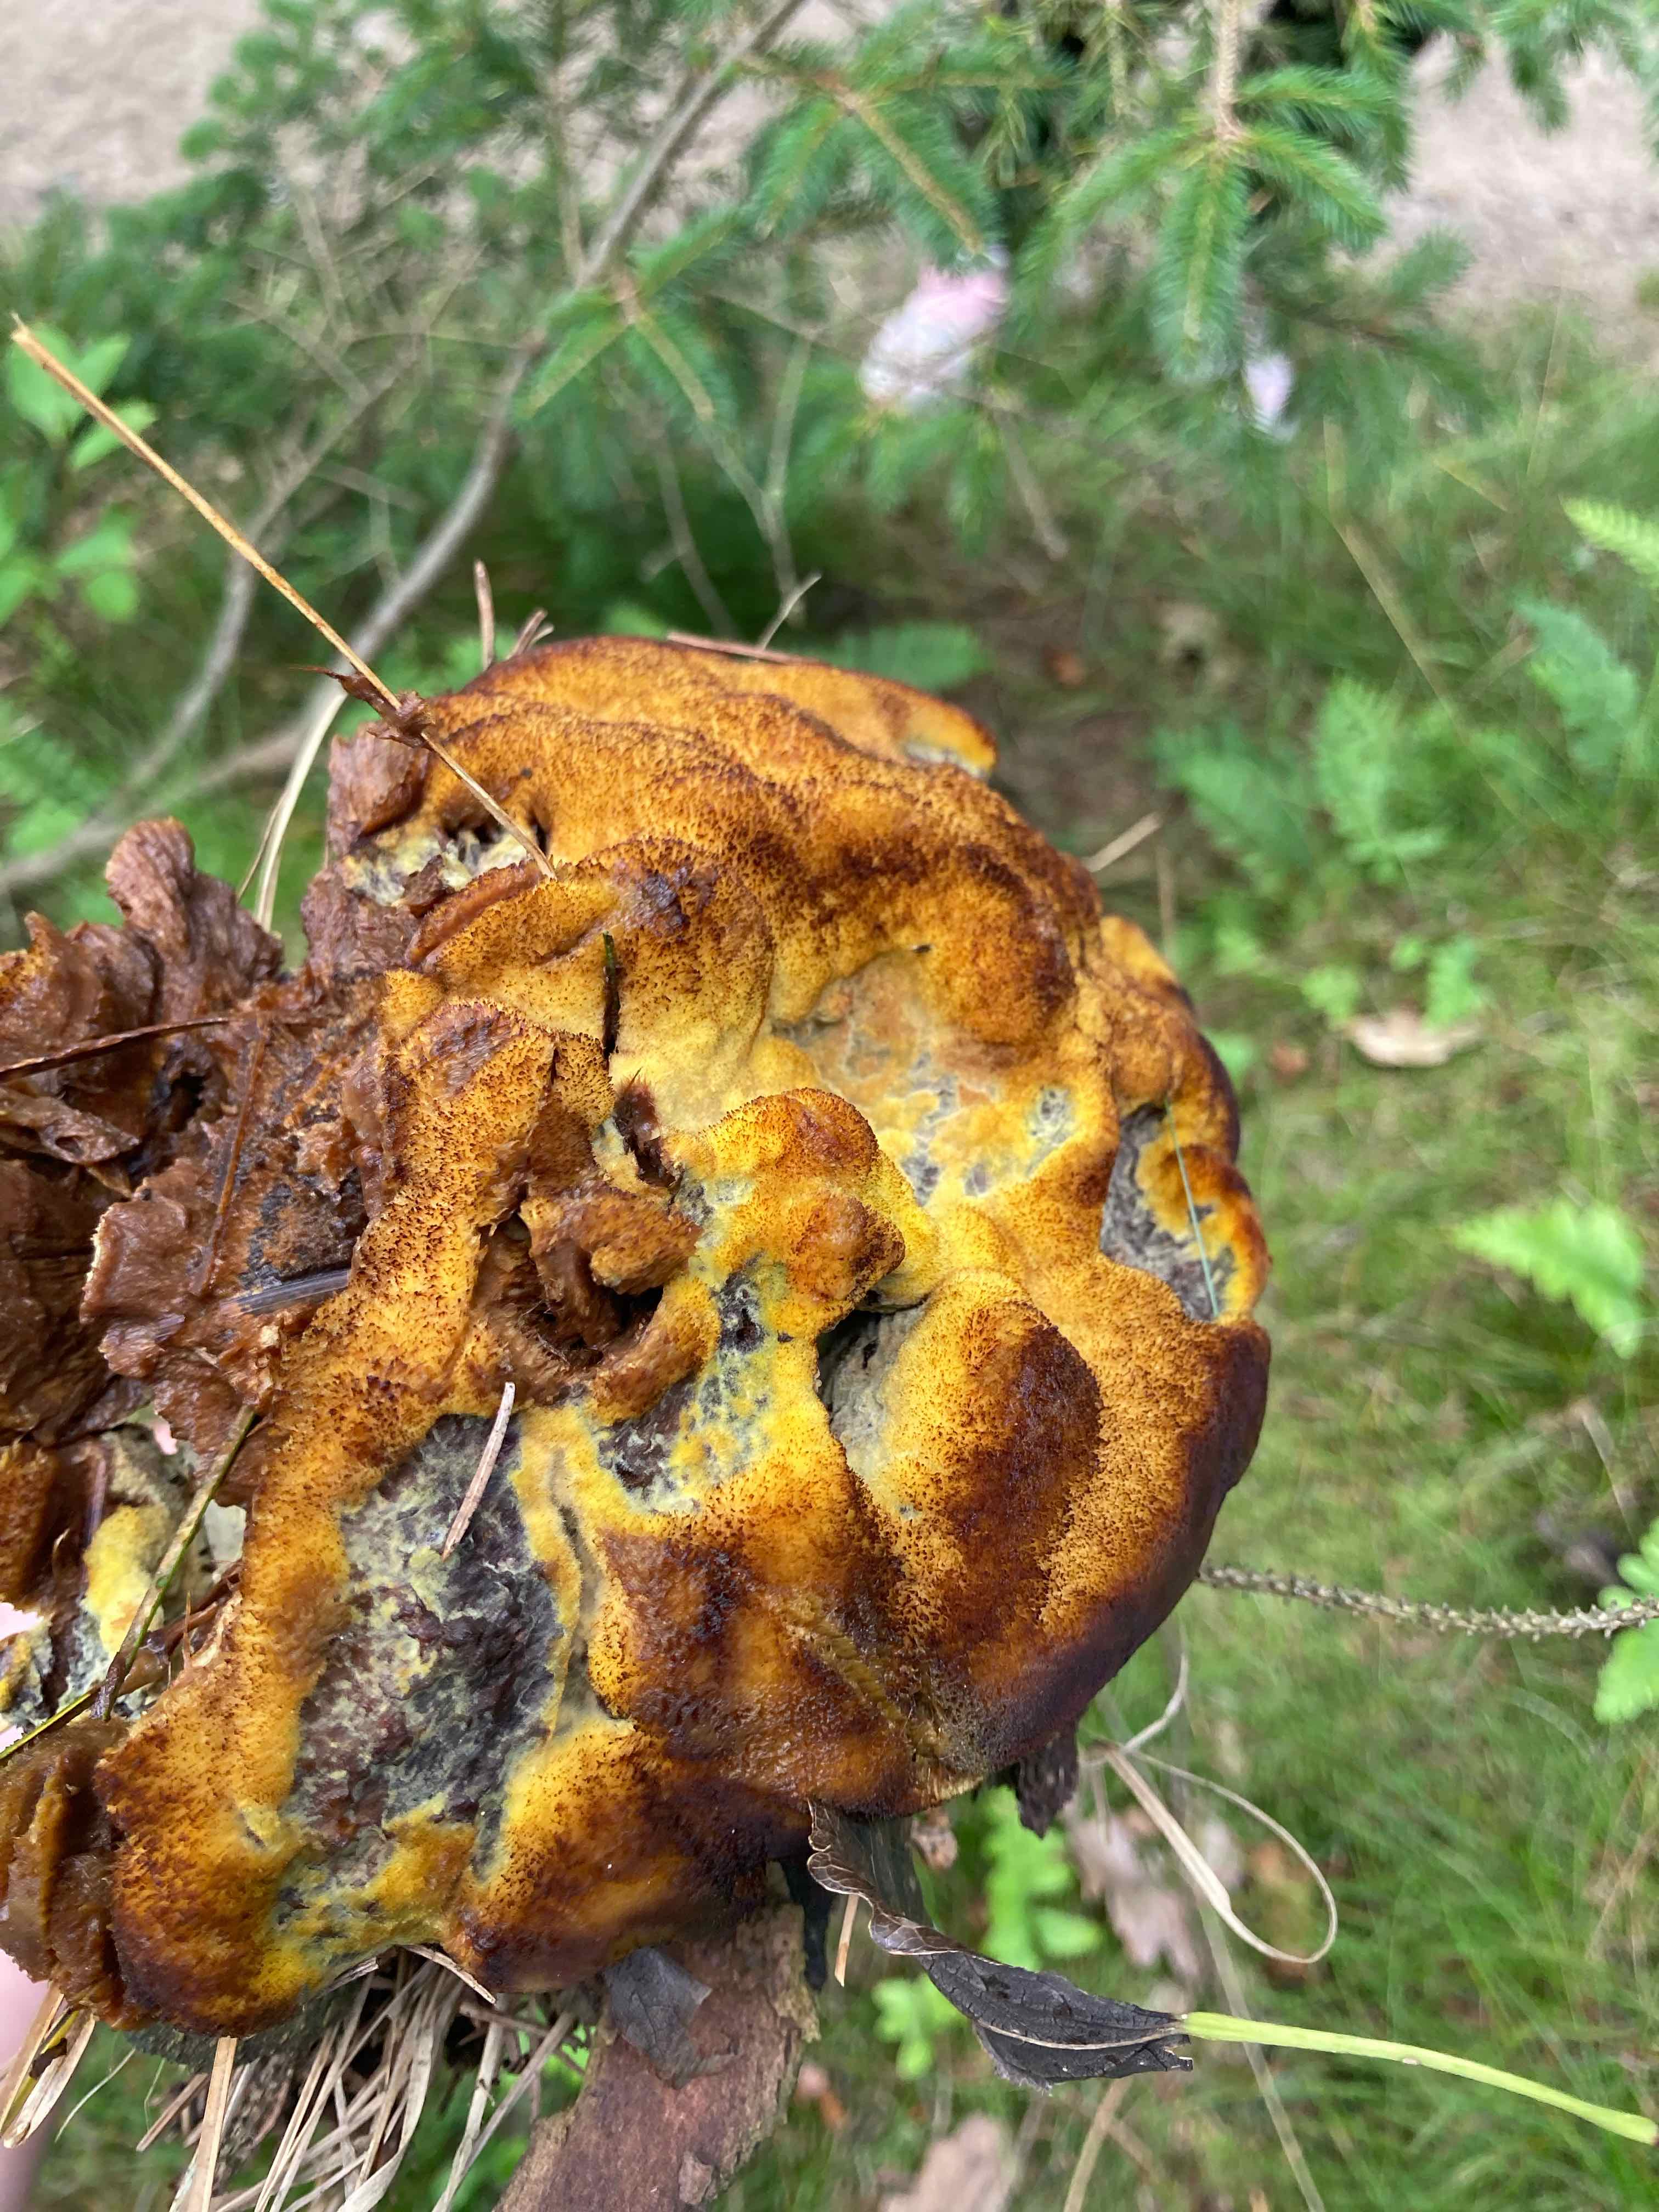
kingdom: Fungi
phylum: Basidiomycota
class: Agaricomycetes
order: Polyporales
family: Laetiporaceae
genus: Phaeolus
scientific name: Phaeolus schweinitzii
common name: brunporesvamp
